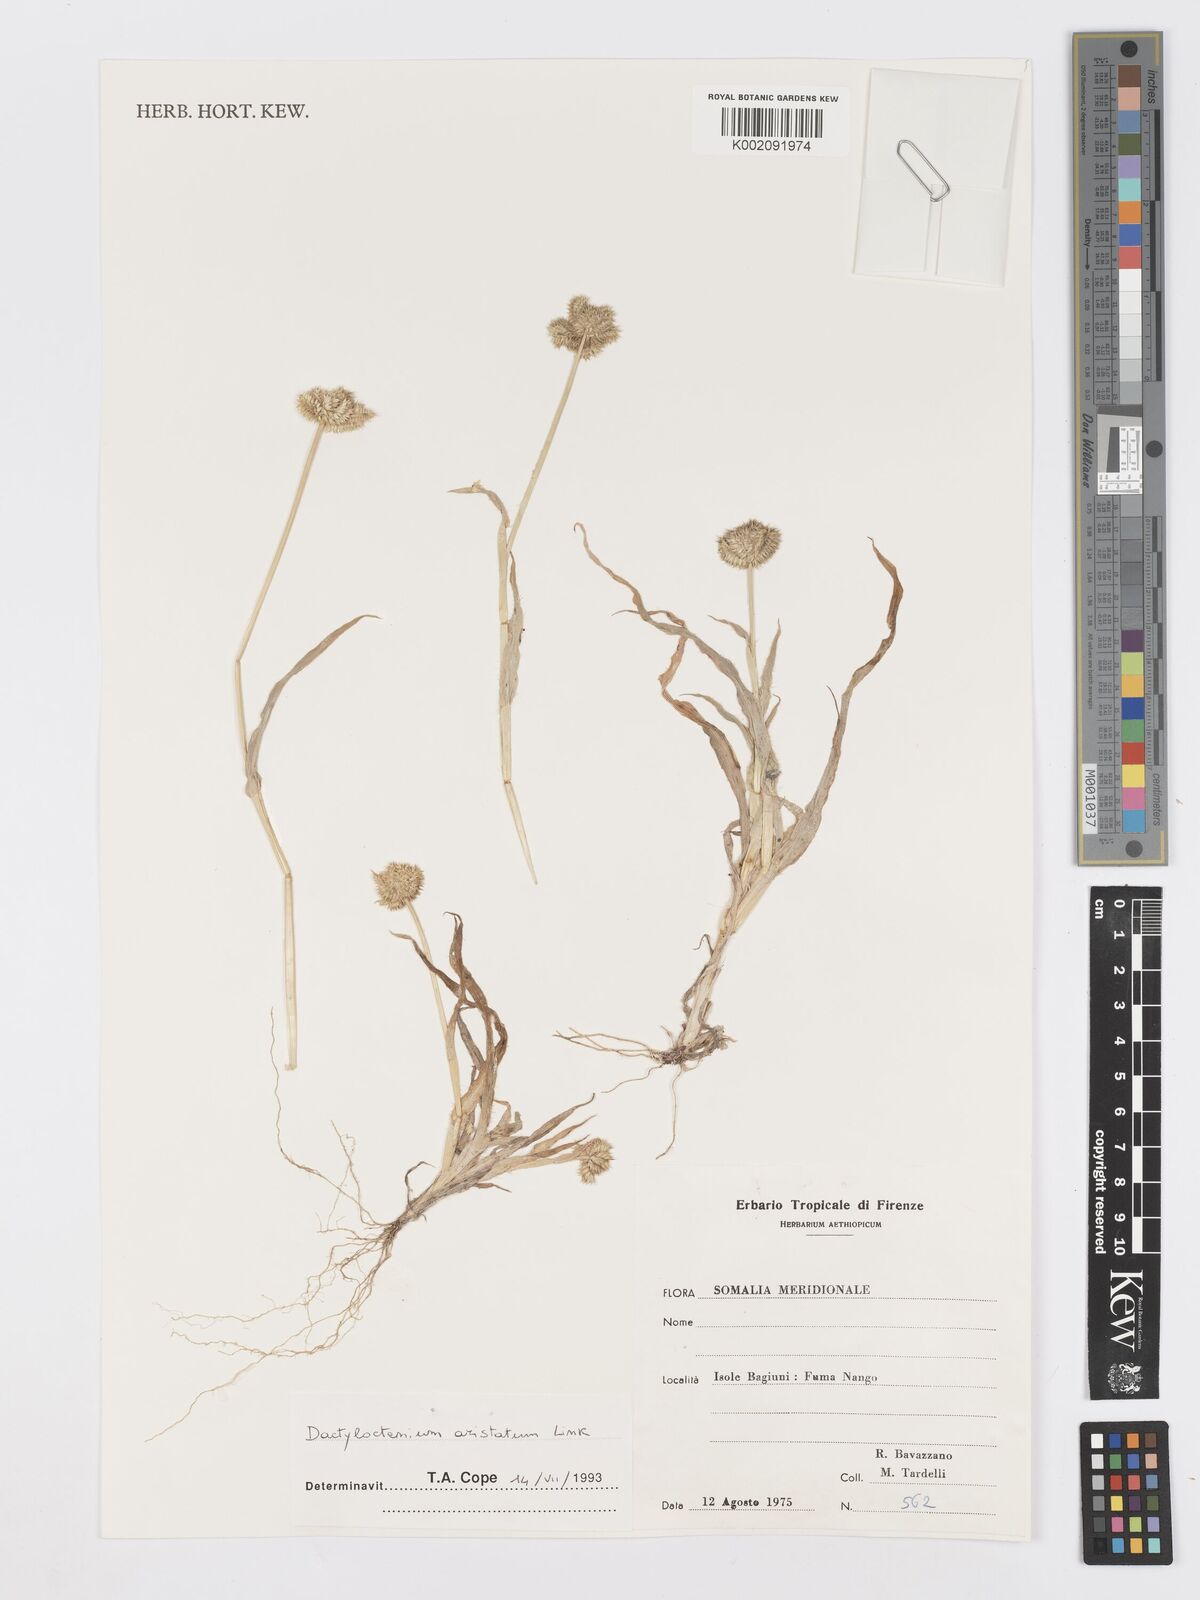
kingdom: Plantae
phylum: Tracheophyta
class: Liliopsida
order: Poales
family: Poaceae
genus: Dactyloctenium
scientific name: Dactyloctenium aristatum
